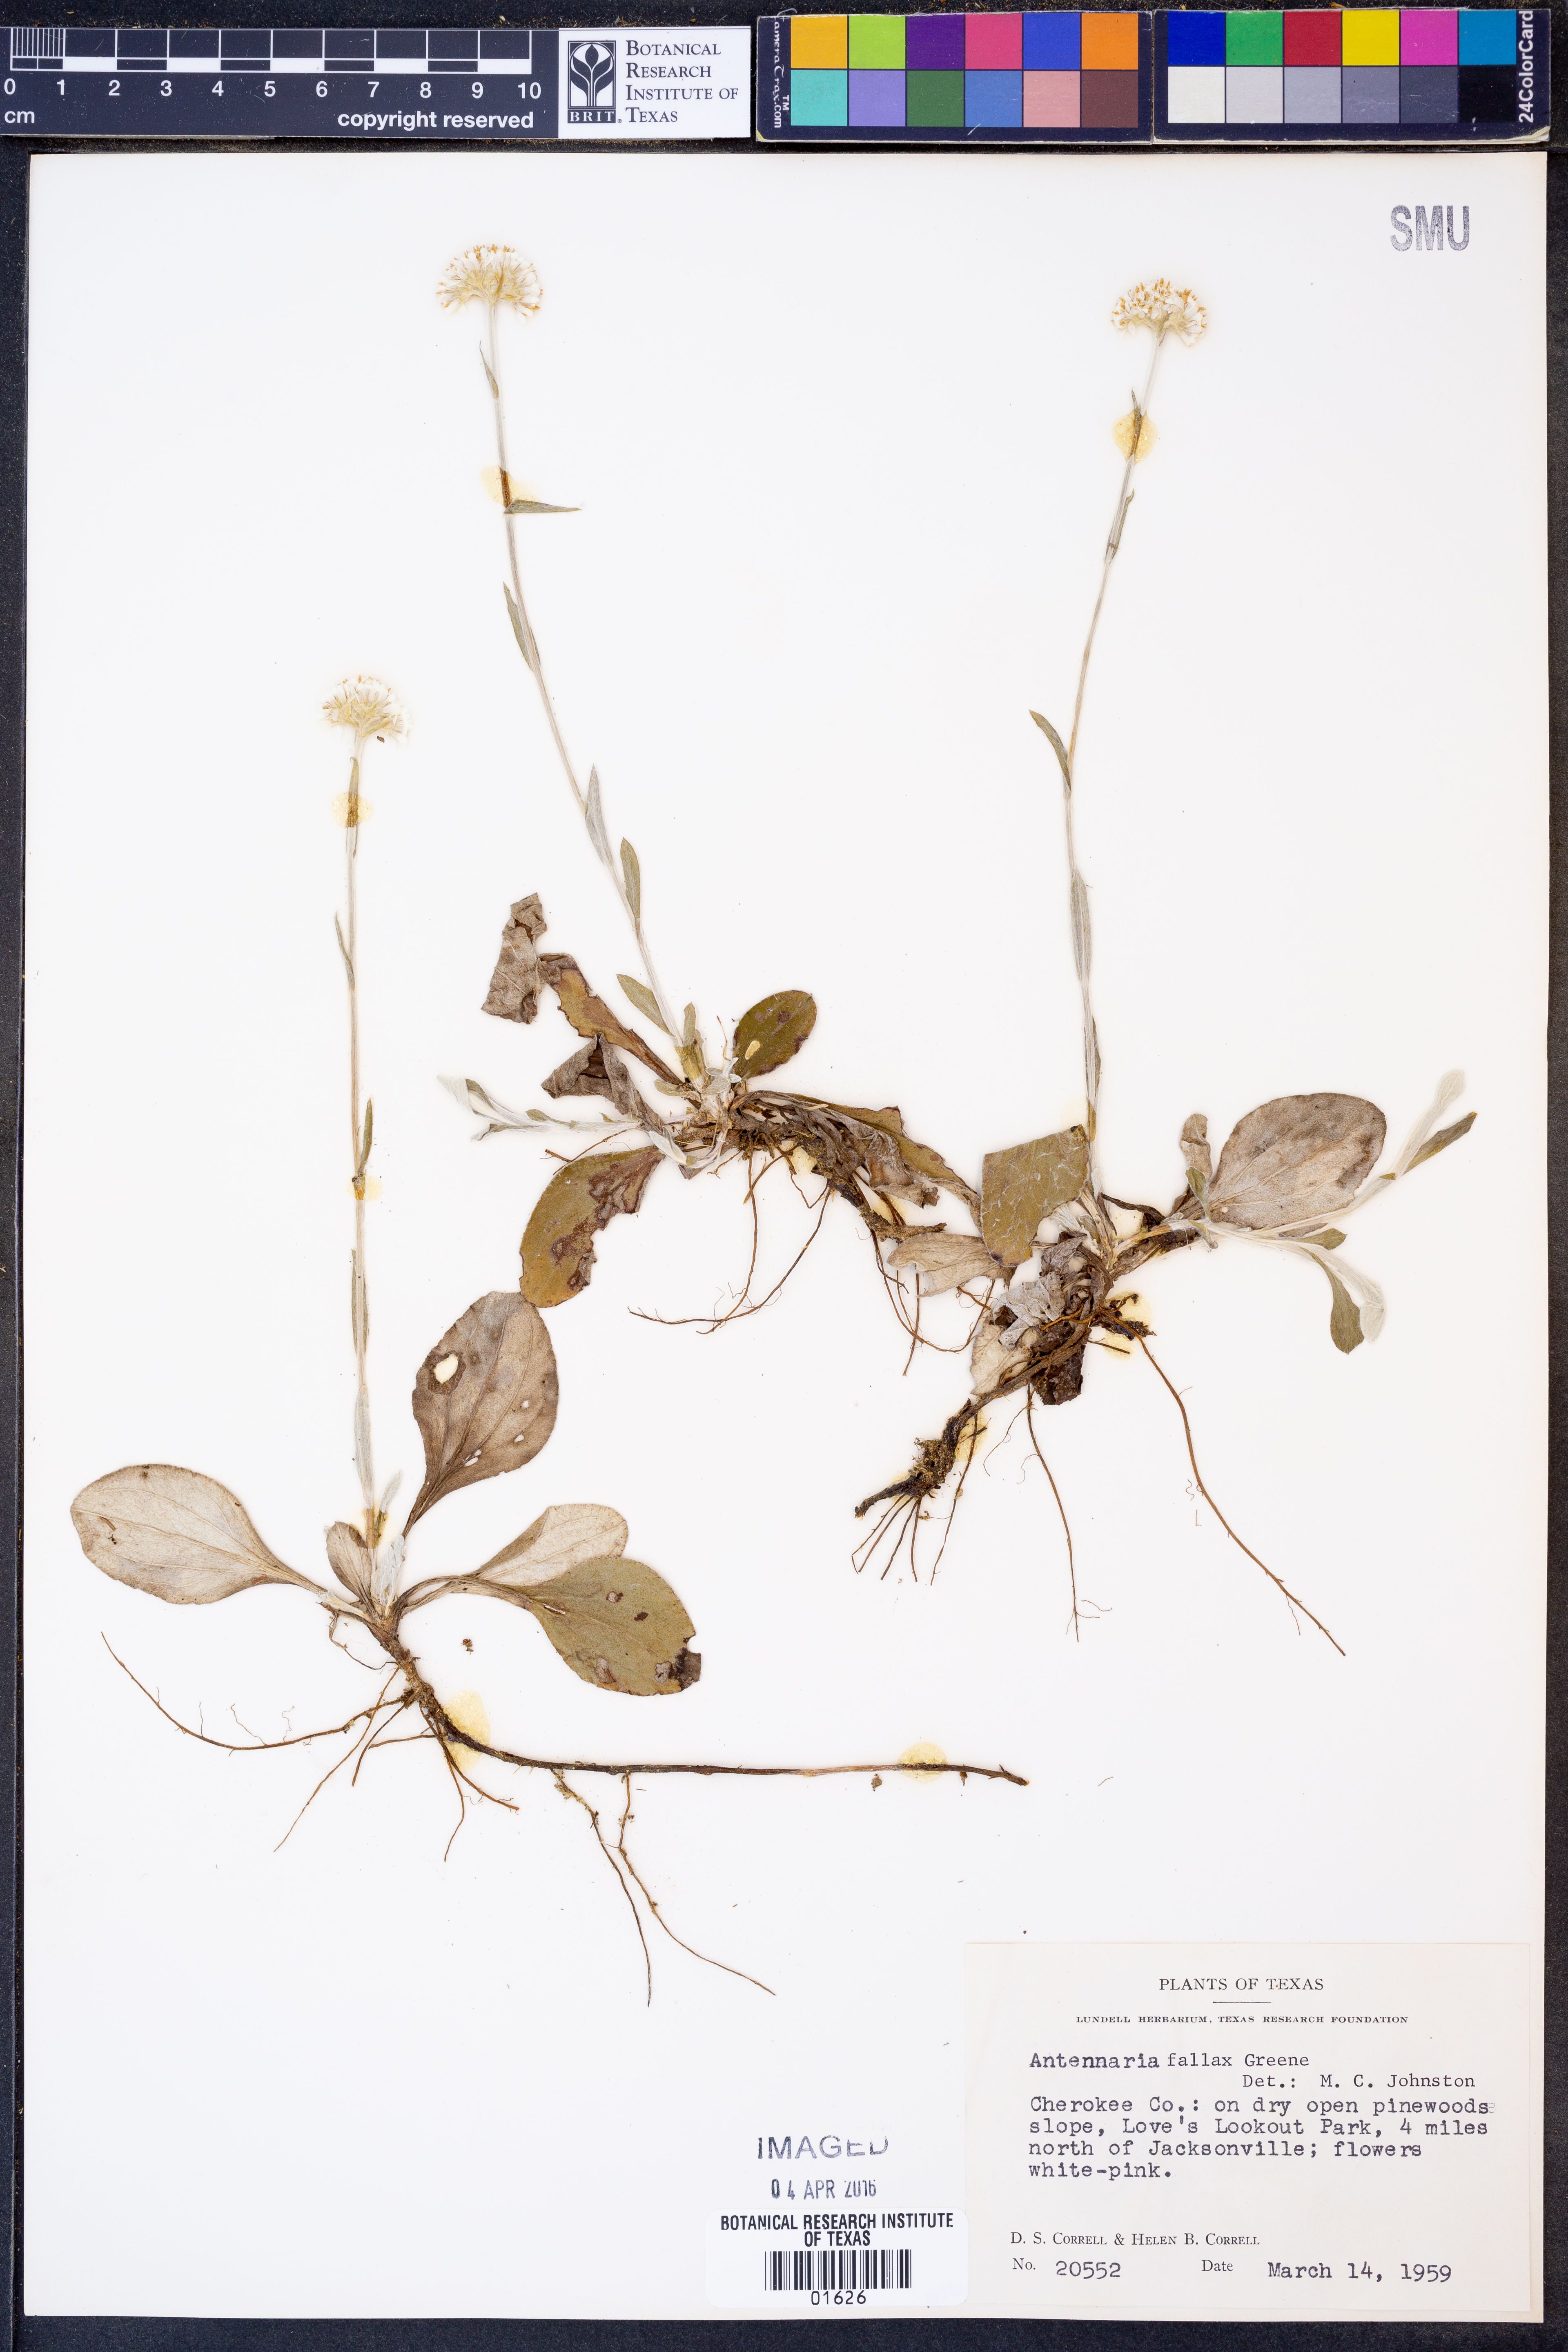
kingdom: Plantae
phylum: Tracheophyta
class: Magnoliopsida
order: Asterales
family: Asteraceae
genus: Antennaria
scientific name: Antennaria parlinii
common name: Parlin's pussytoes
